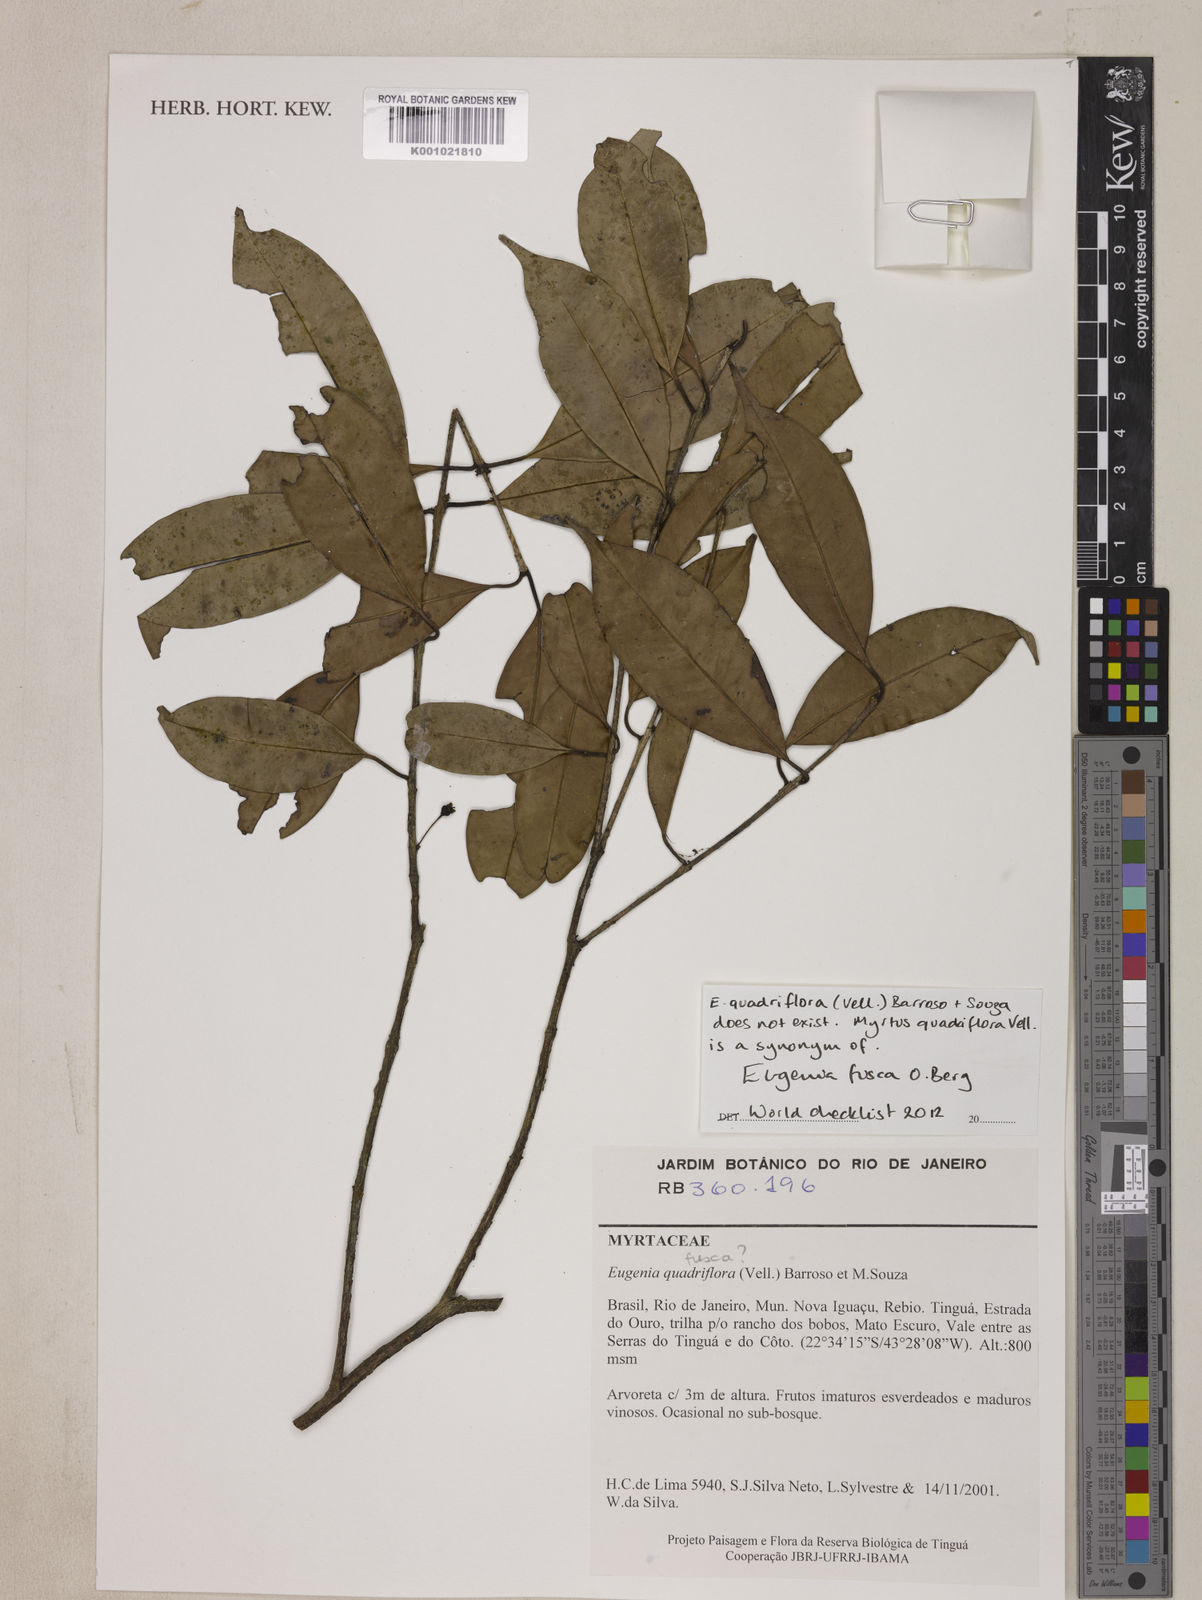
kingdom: Plantae
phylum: Tracheophyta
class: Magnoliopsida
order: Myrtales
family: Myrtaceae
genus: Eugenia
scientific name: Eugenia fusca
